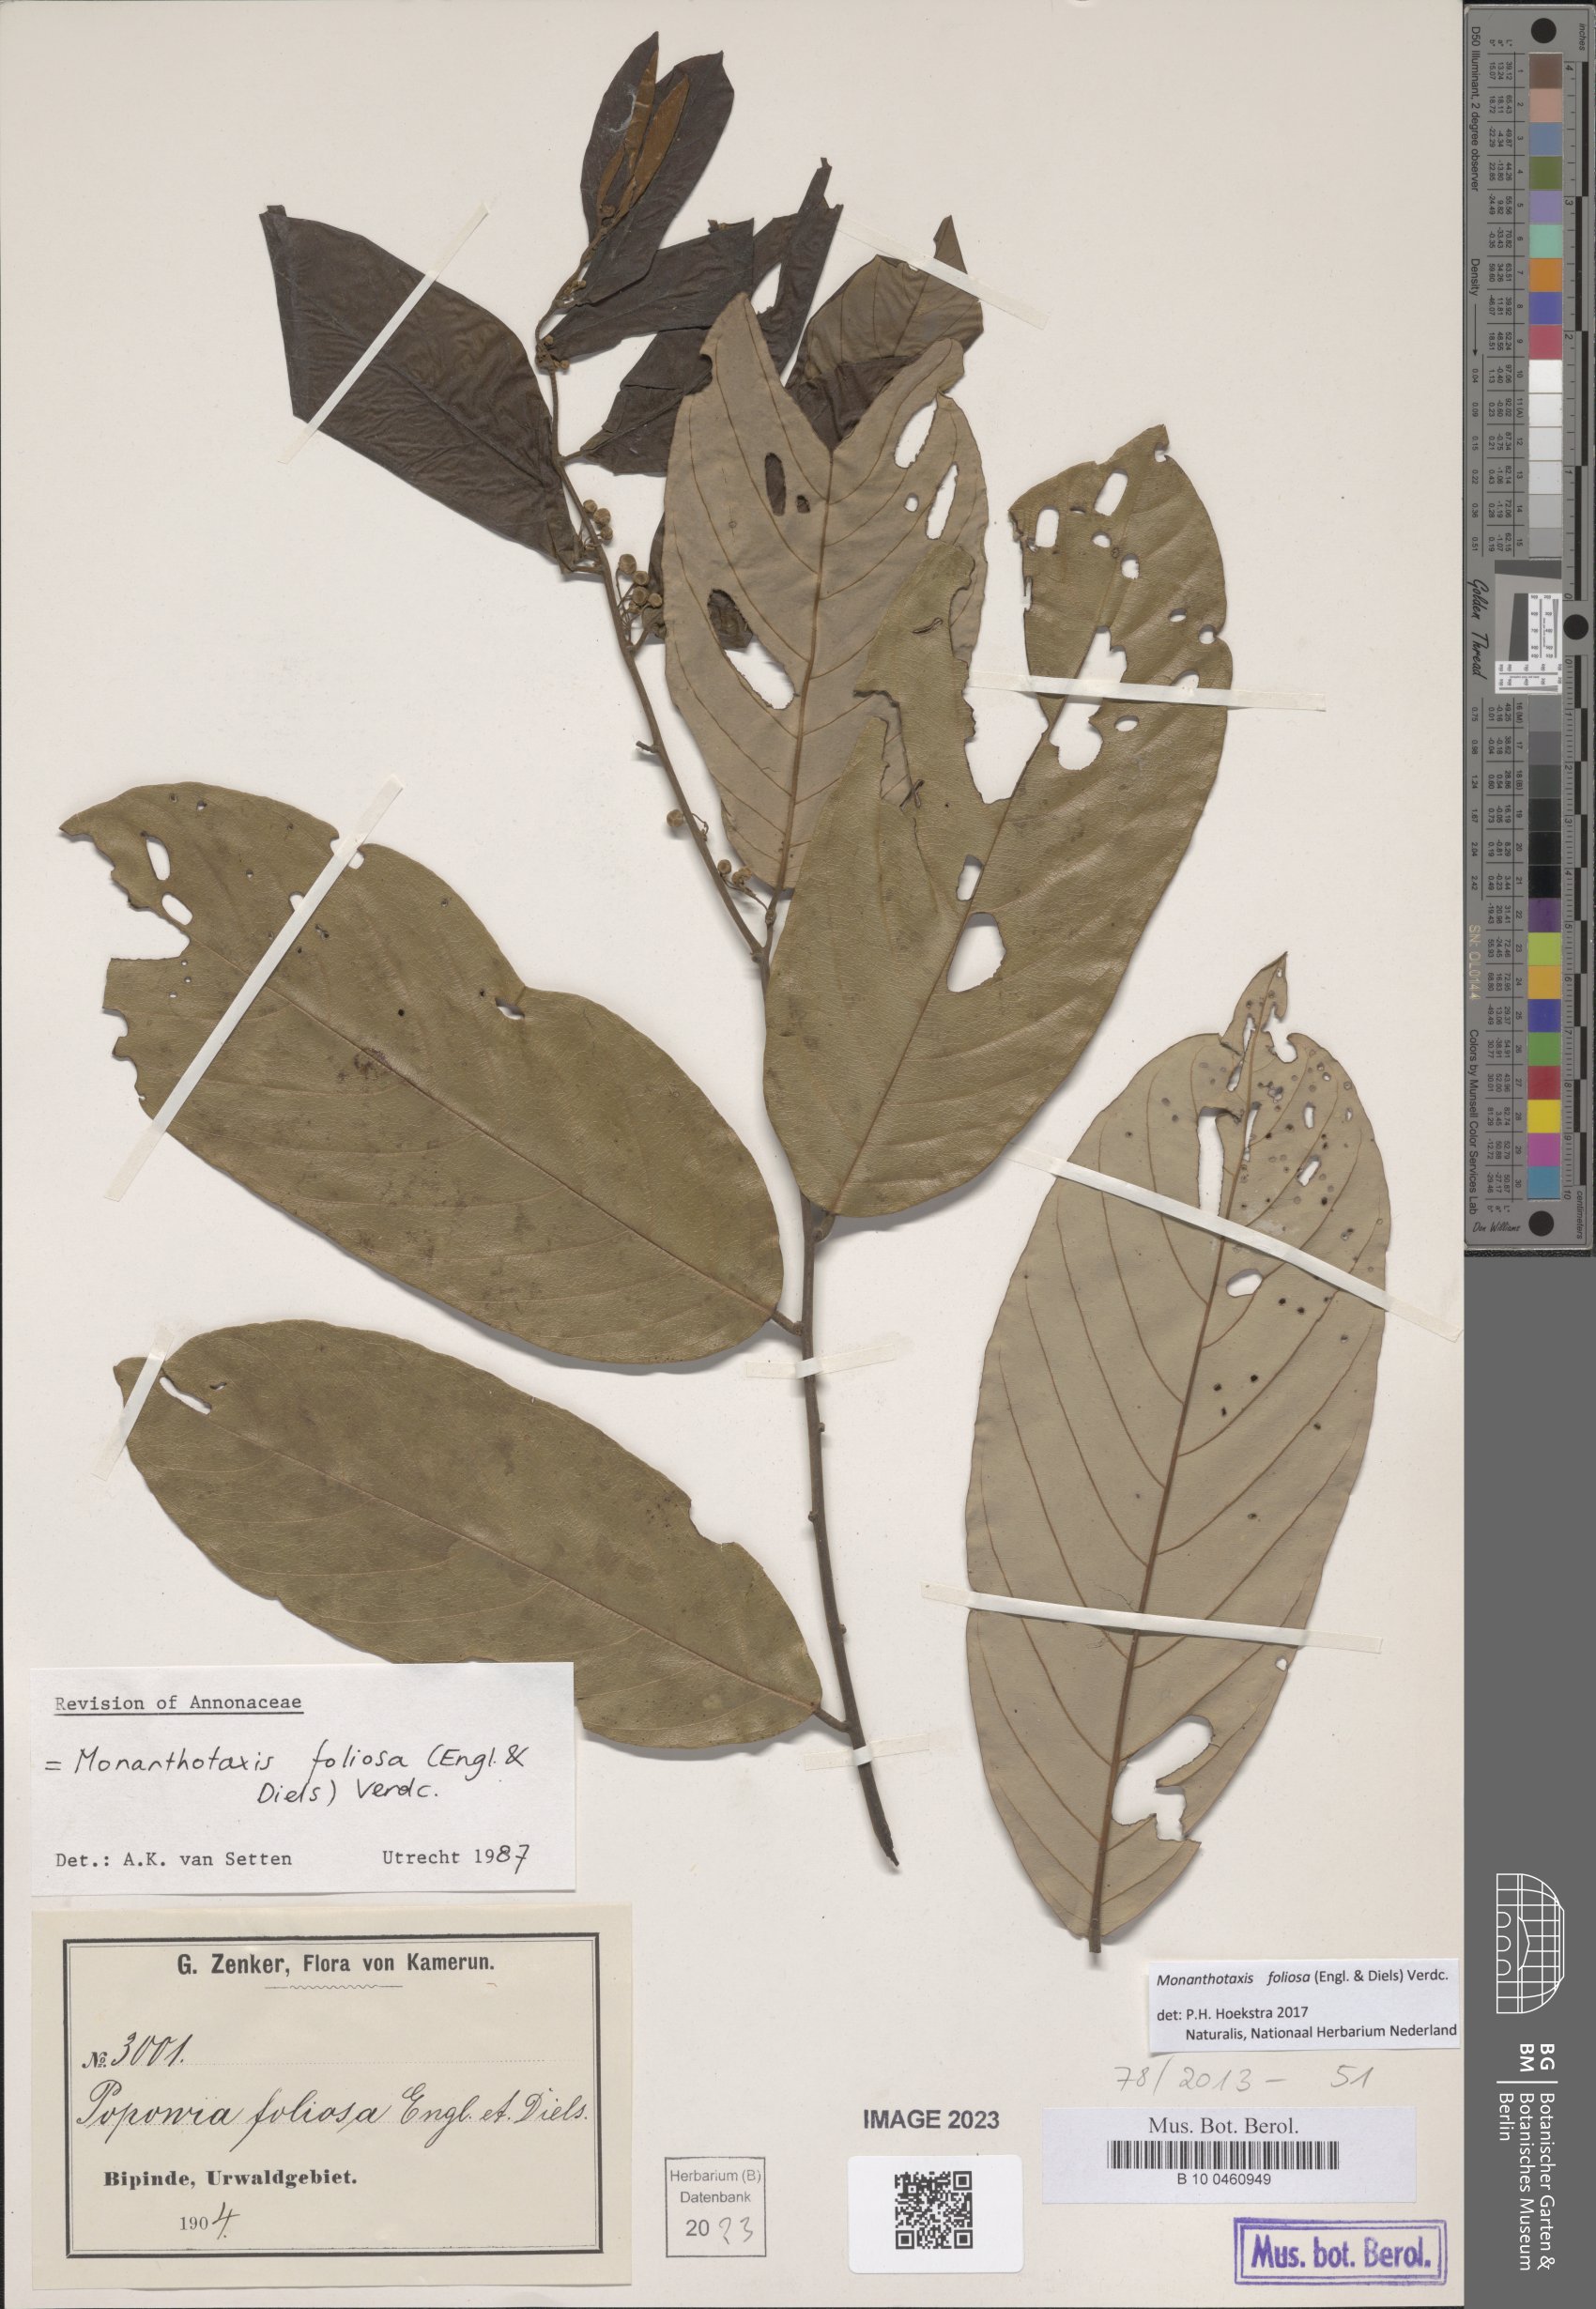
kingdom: Plantae
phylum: Tracheophyta
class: Magnoliopsida
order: Magnoliales
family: Annonaceae
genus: Monanthotaxis
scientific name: Monanthotaxis foliosa
